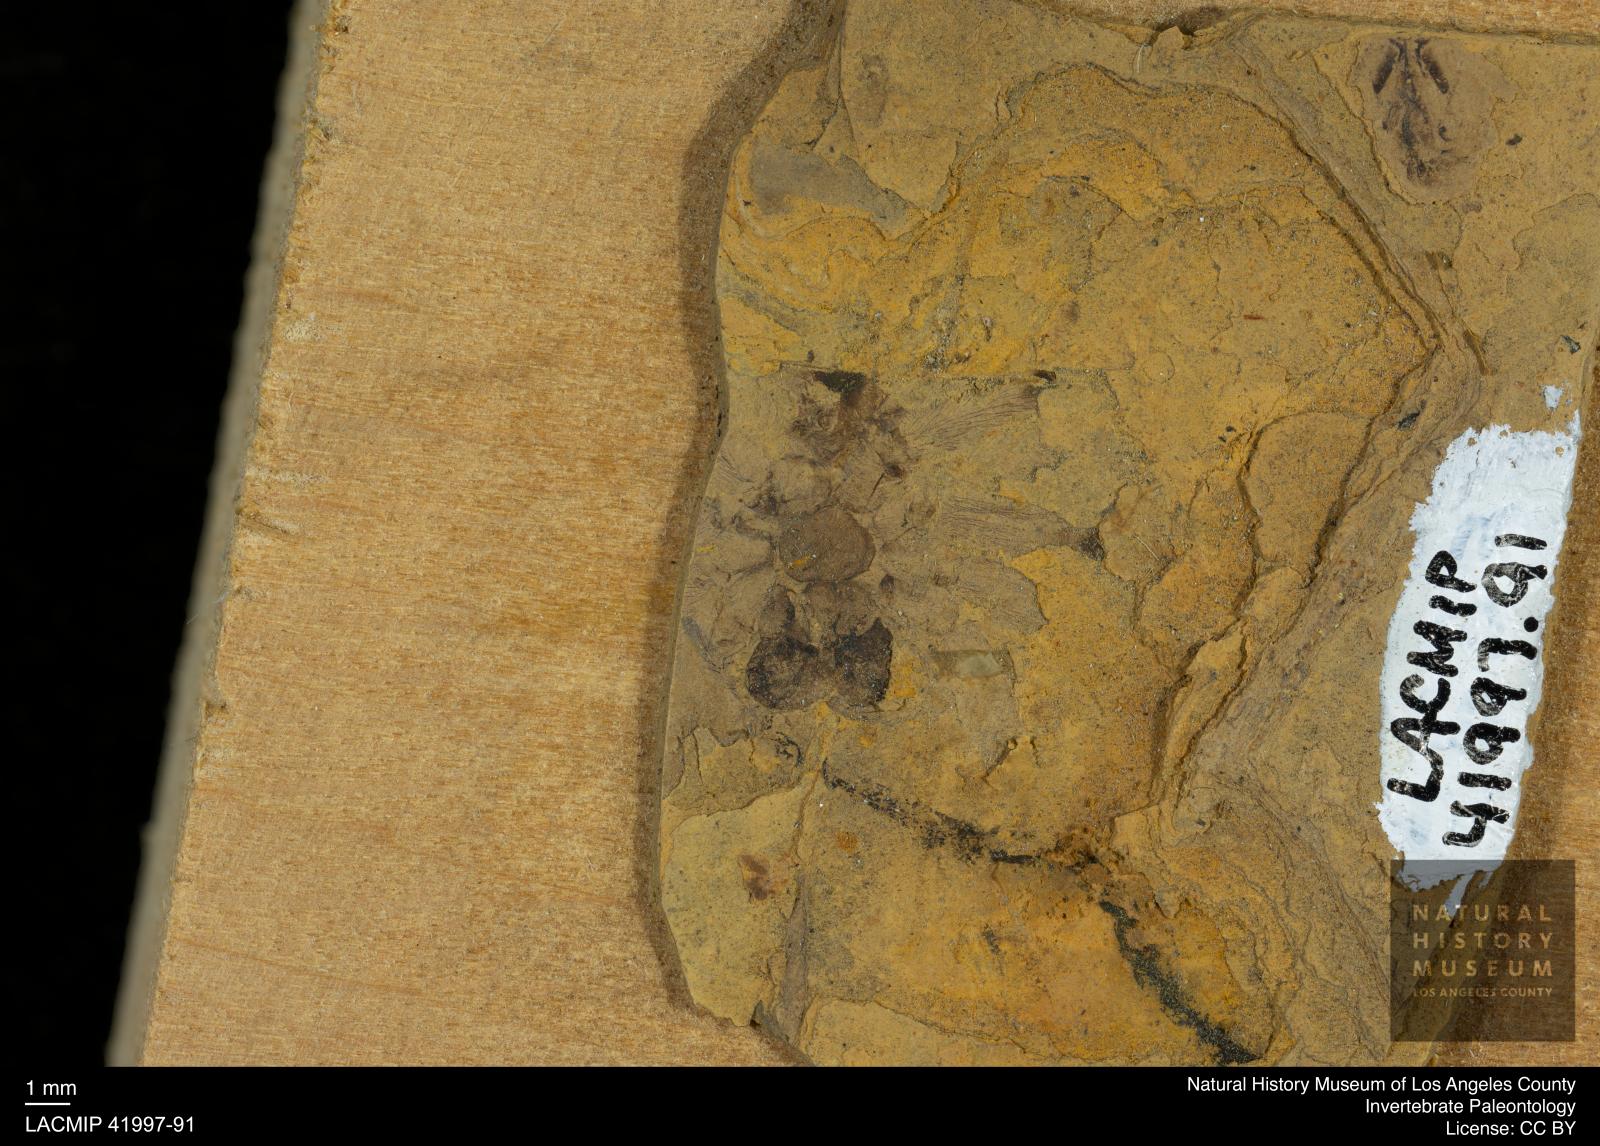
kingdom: Animalia
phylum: Arthropoda
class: Arachnida
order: Araneae
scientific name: Araneae
